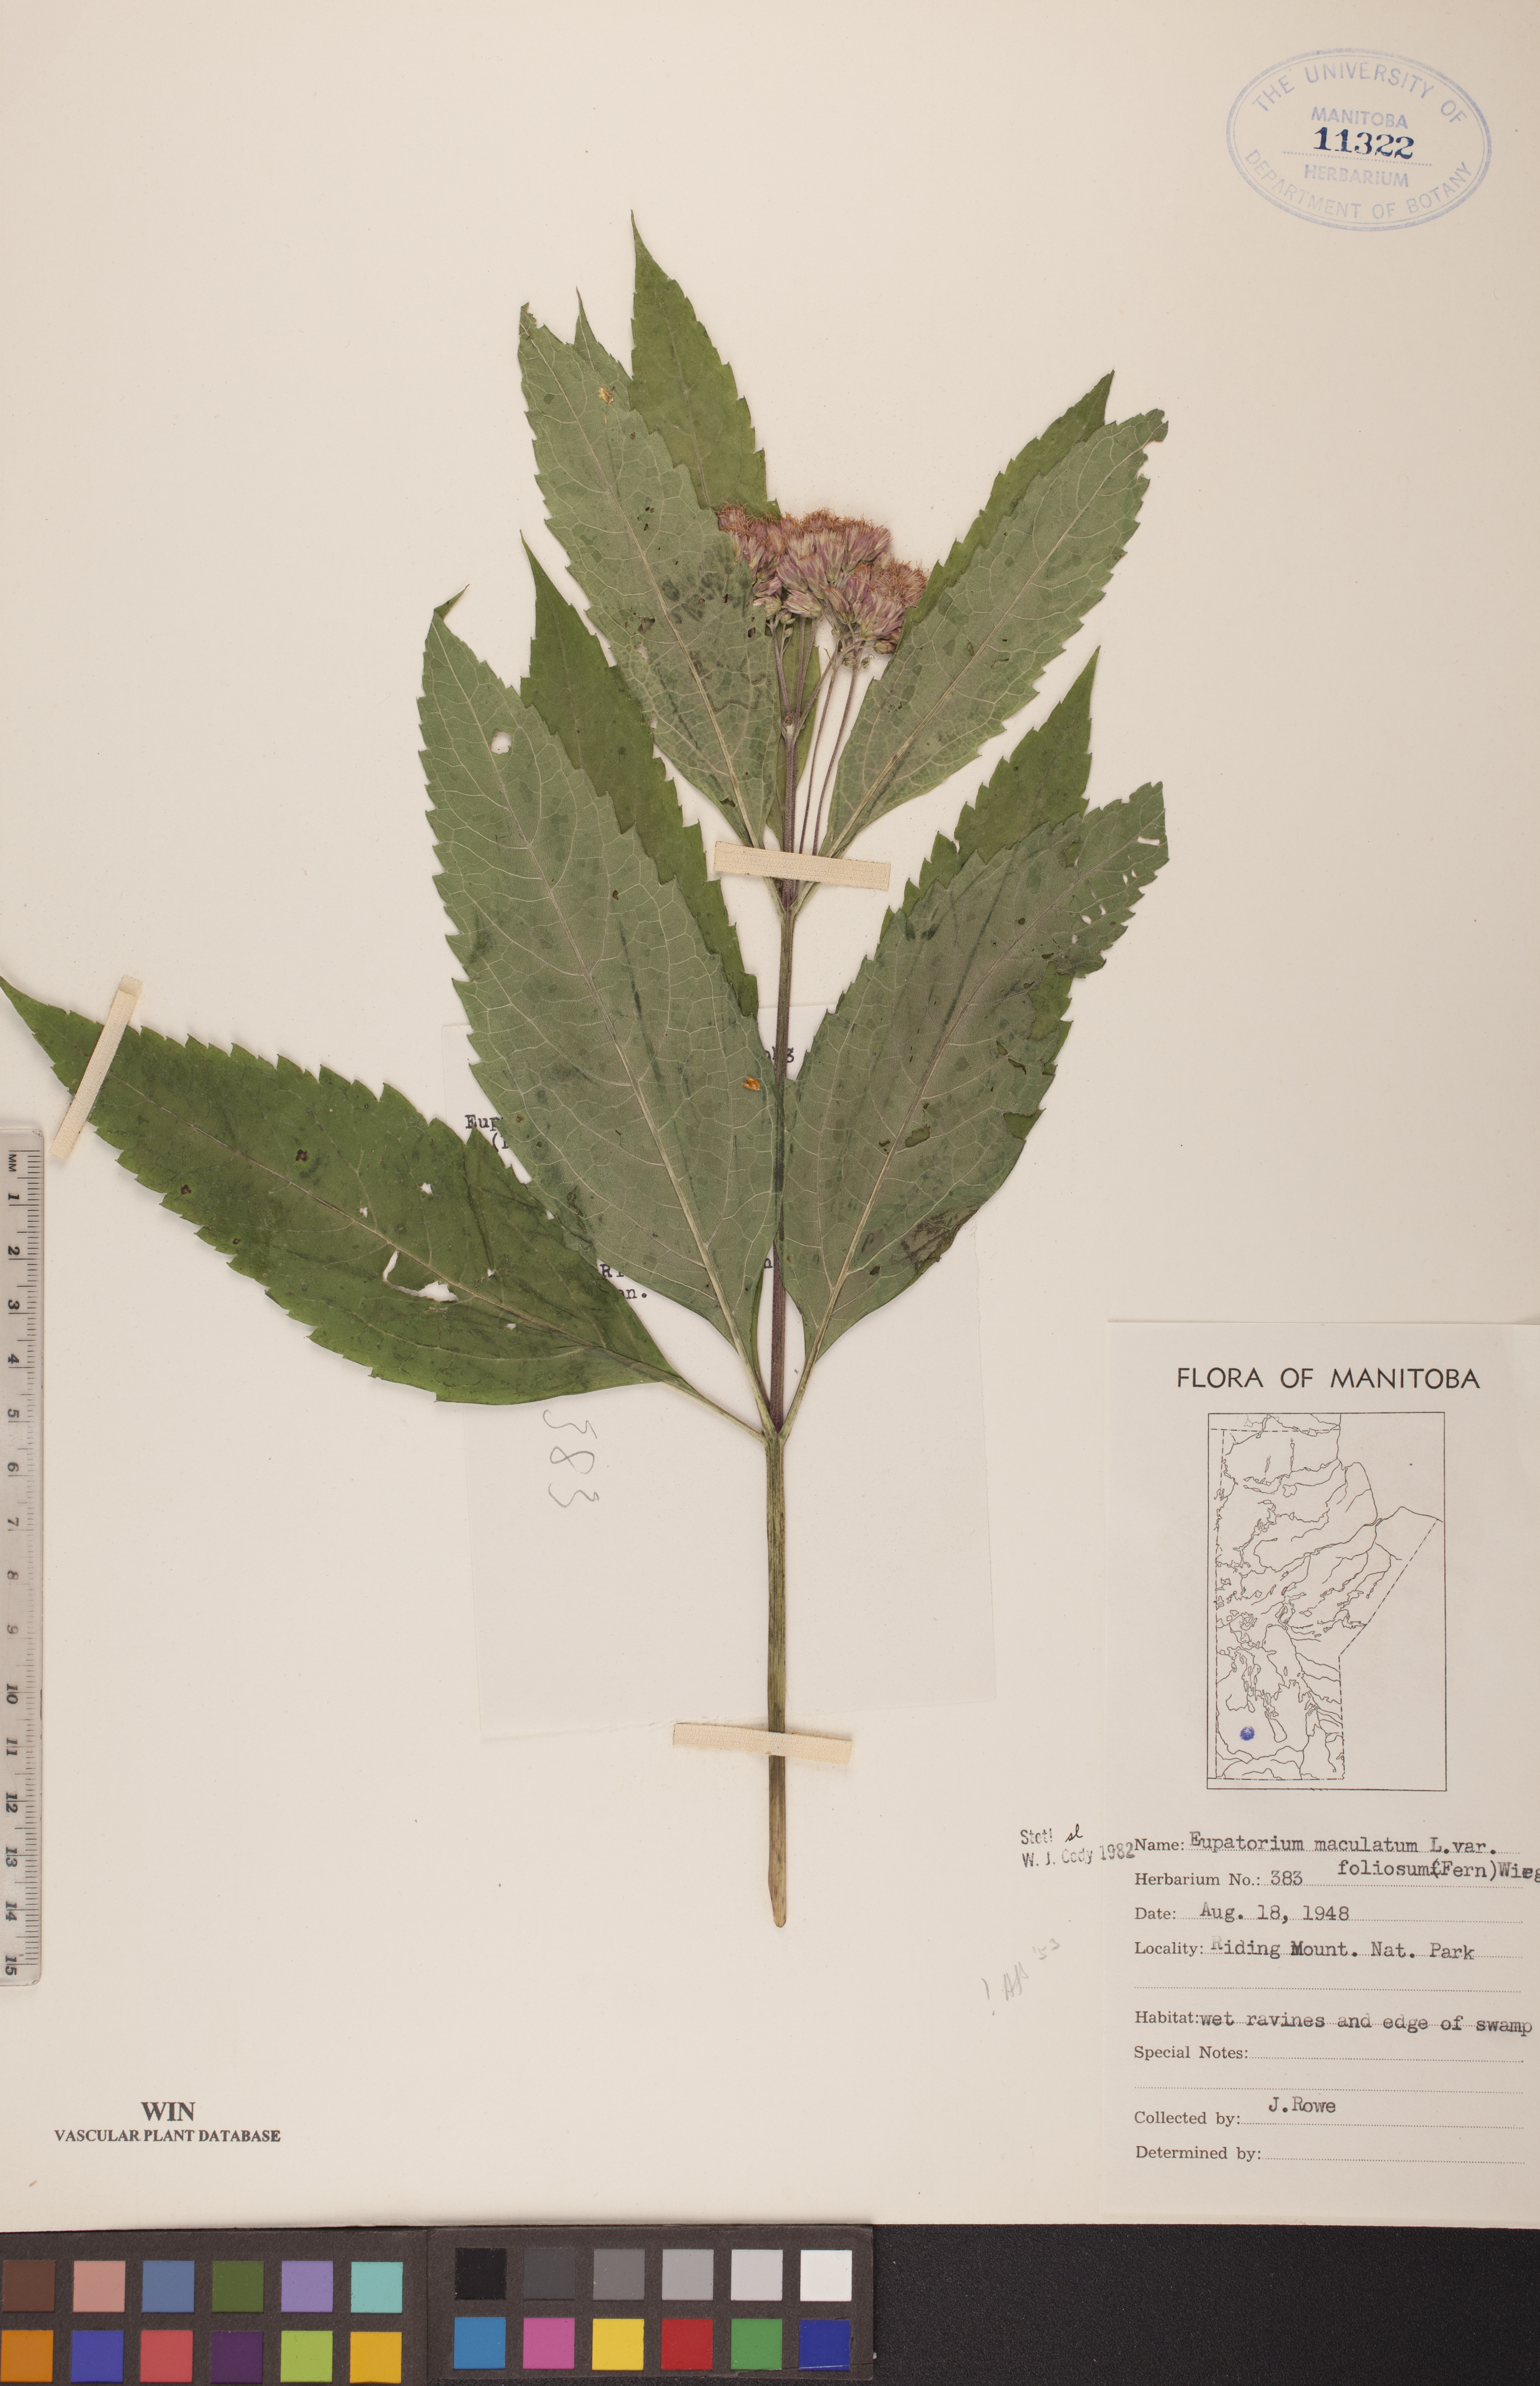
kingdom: Plantae
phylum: Tracheophyta
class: Magnoliopsida
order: Asterales
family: Asteraceae
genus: Eutrochium
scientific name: Eutrochium maculatum
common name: Spotted joe pye weed
